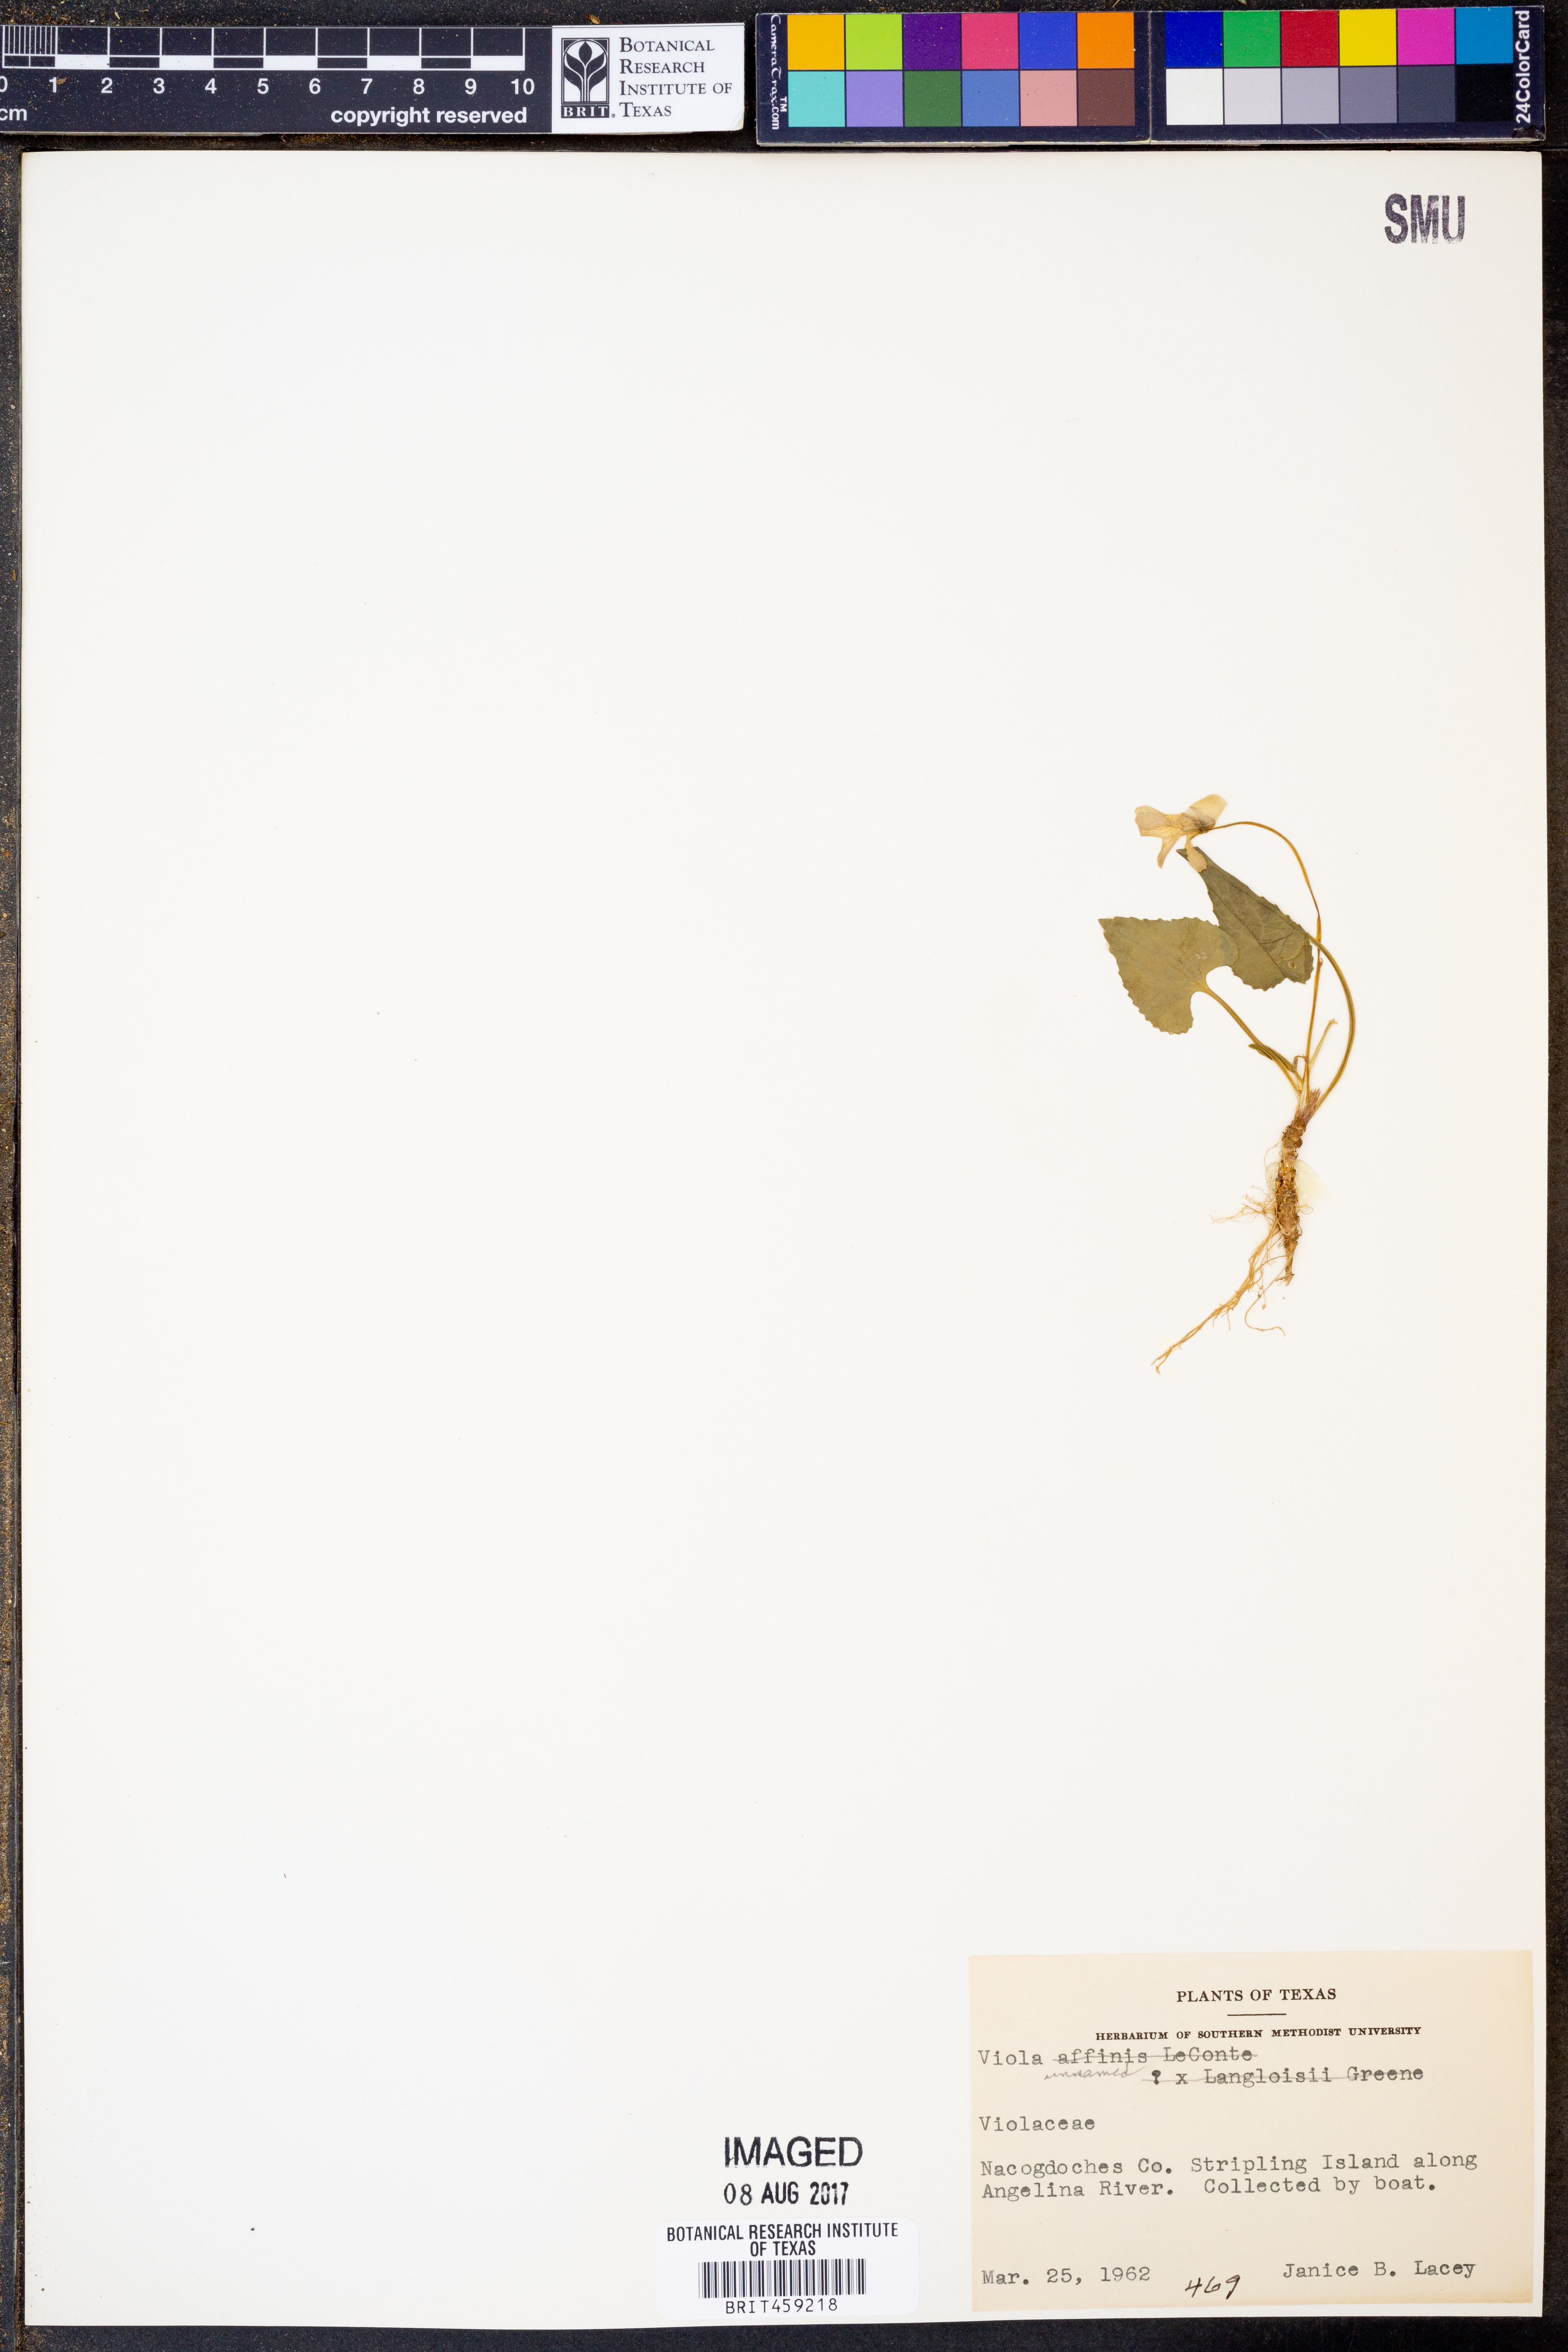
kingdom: Plantae
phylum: Tracheophyta
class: Magnoliopsida
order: Malpighiales
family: Violaceae
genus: Viola
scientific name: Viola
